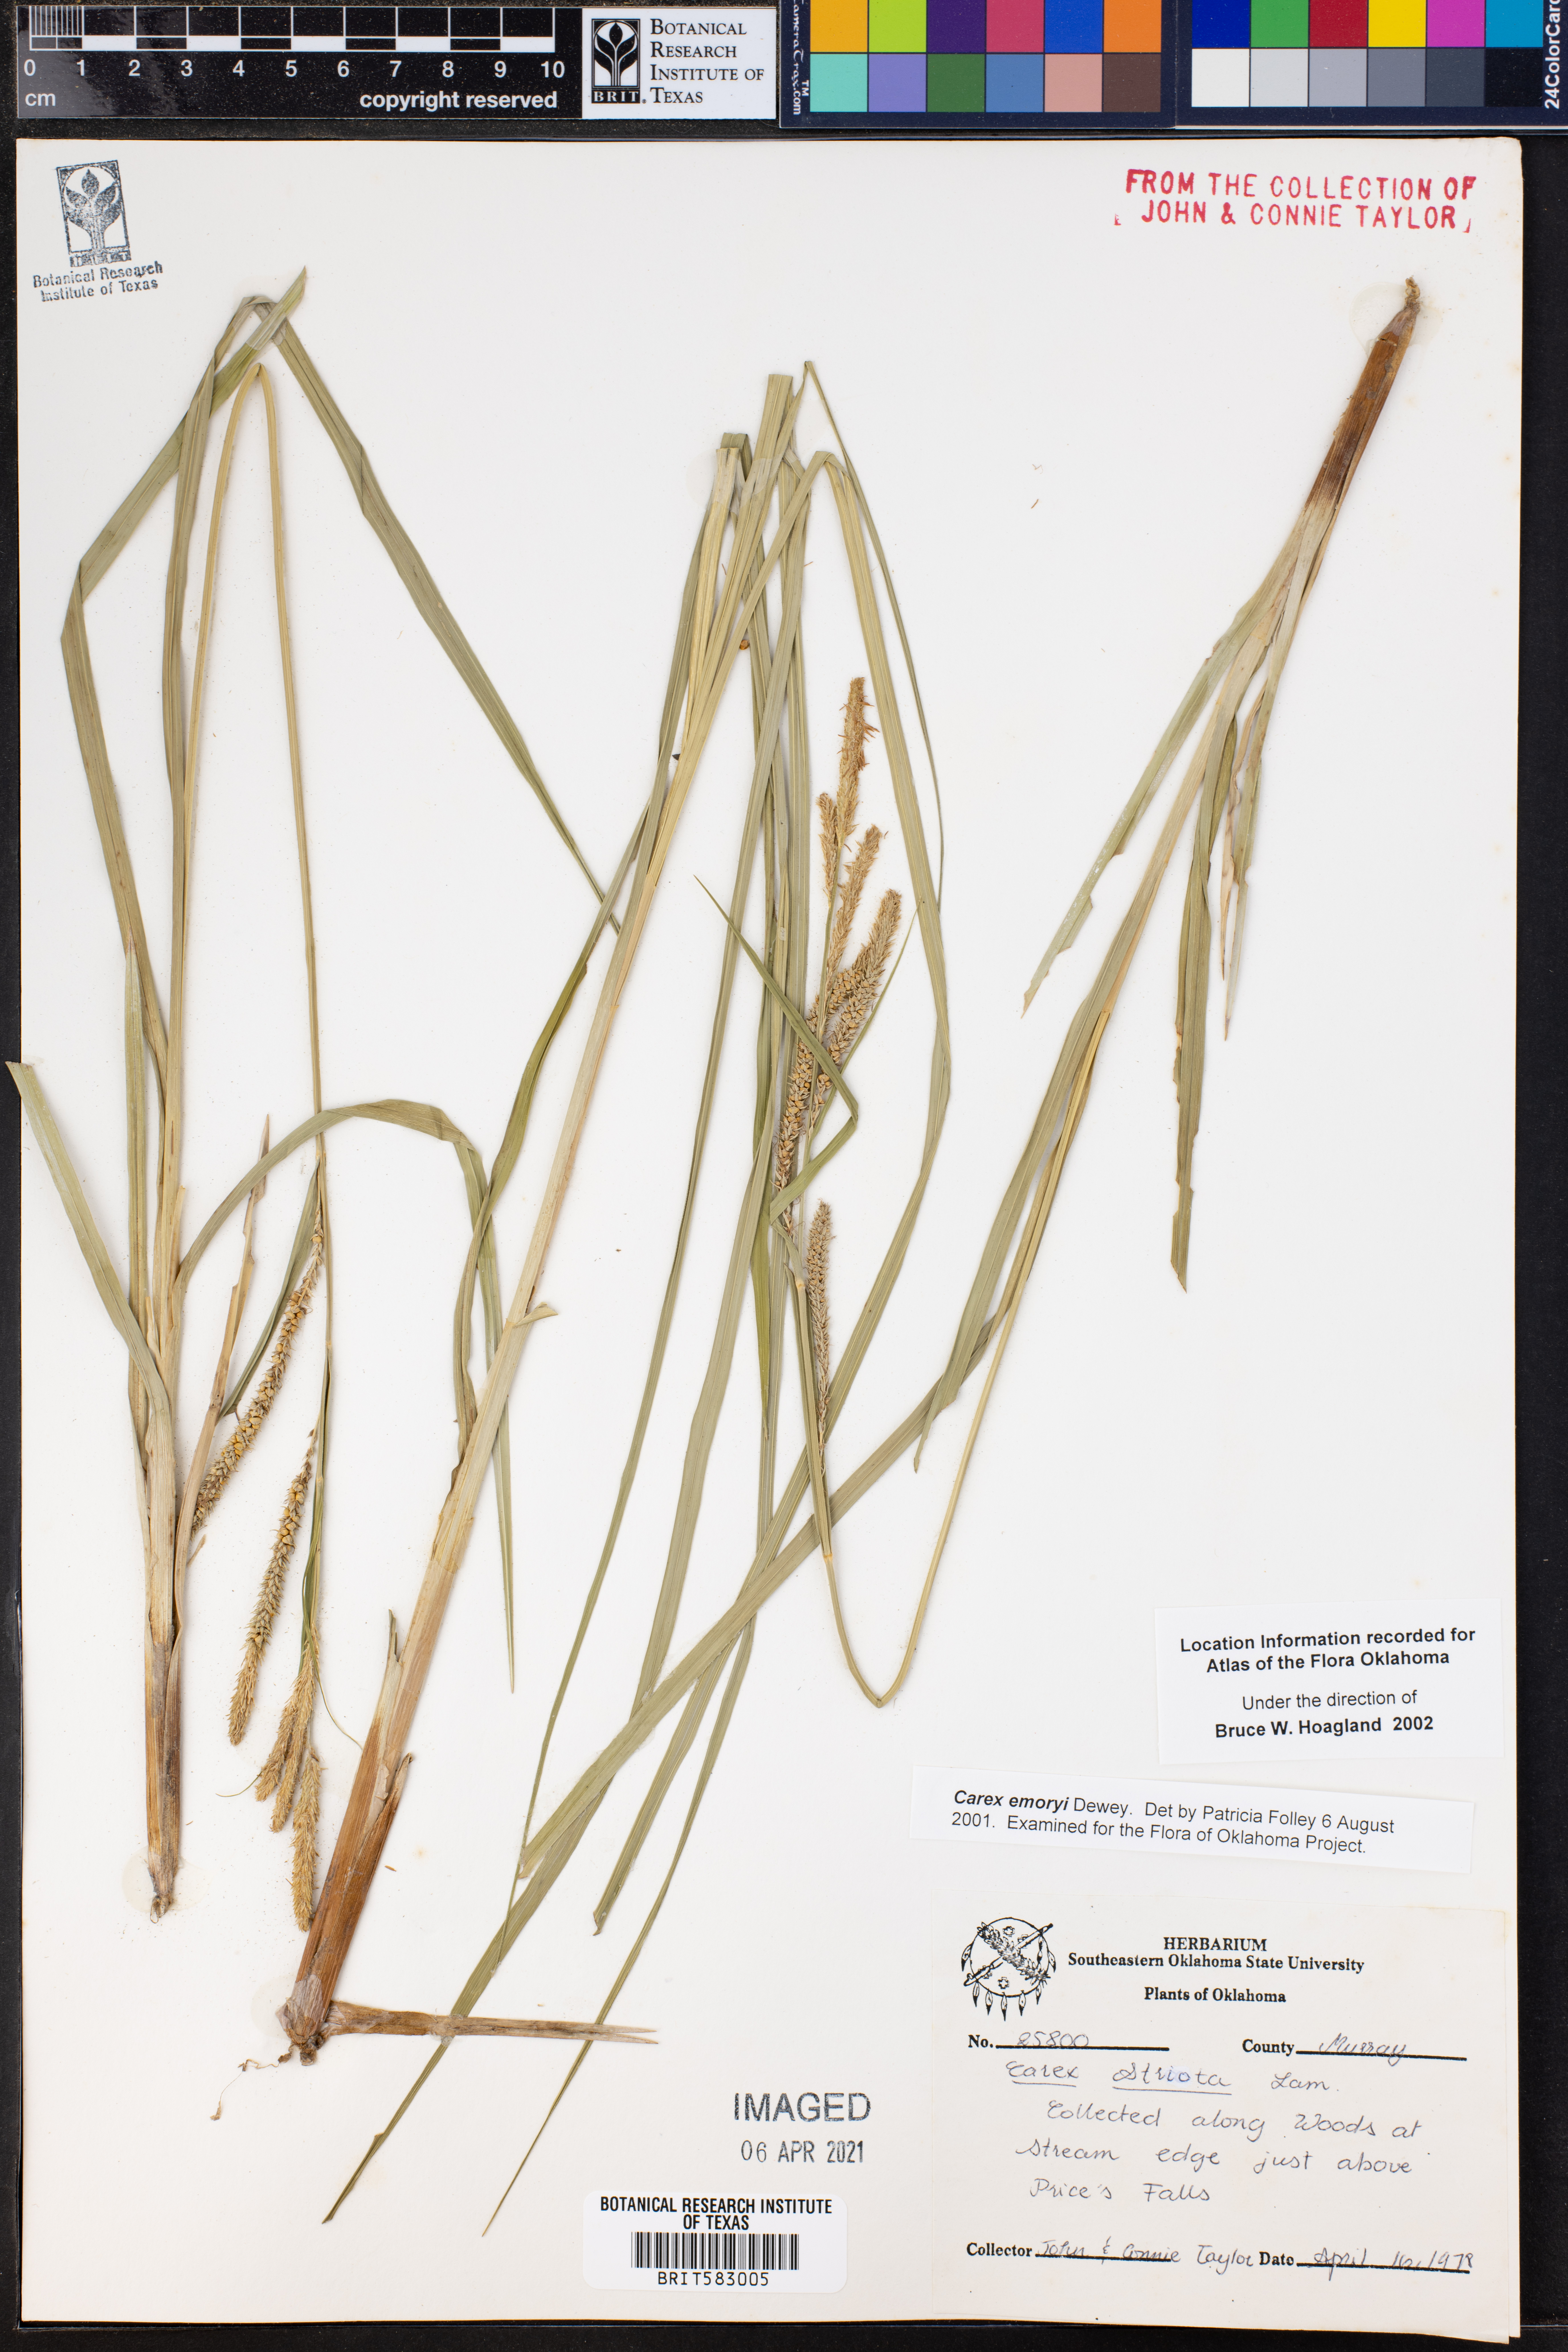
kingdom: Plantae
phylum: Tracheophyta
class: Liliopsida
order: Poales
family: Cyperaceae
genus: Carex
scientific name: Carex emoryi
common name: Emory's sedge
